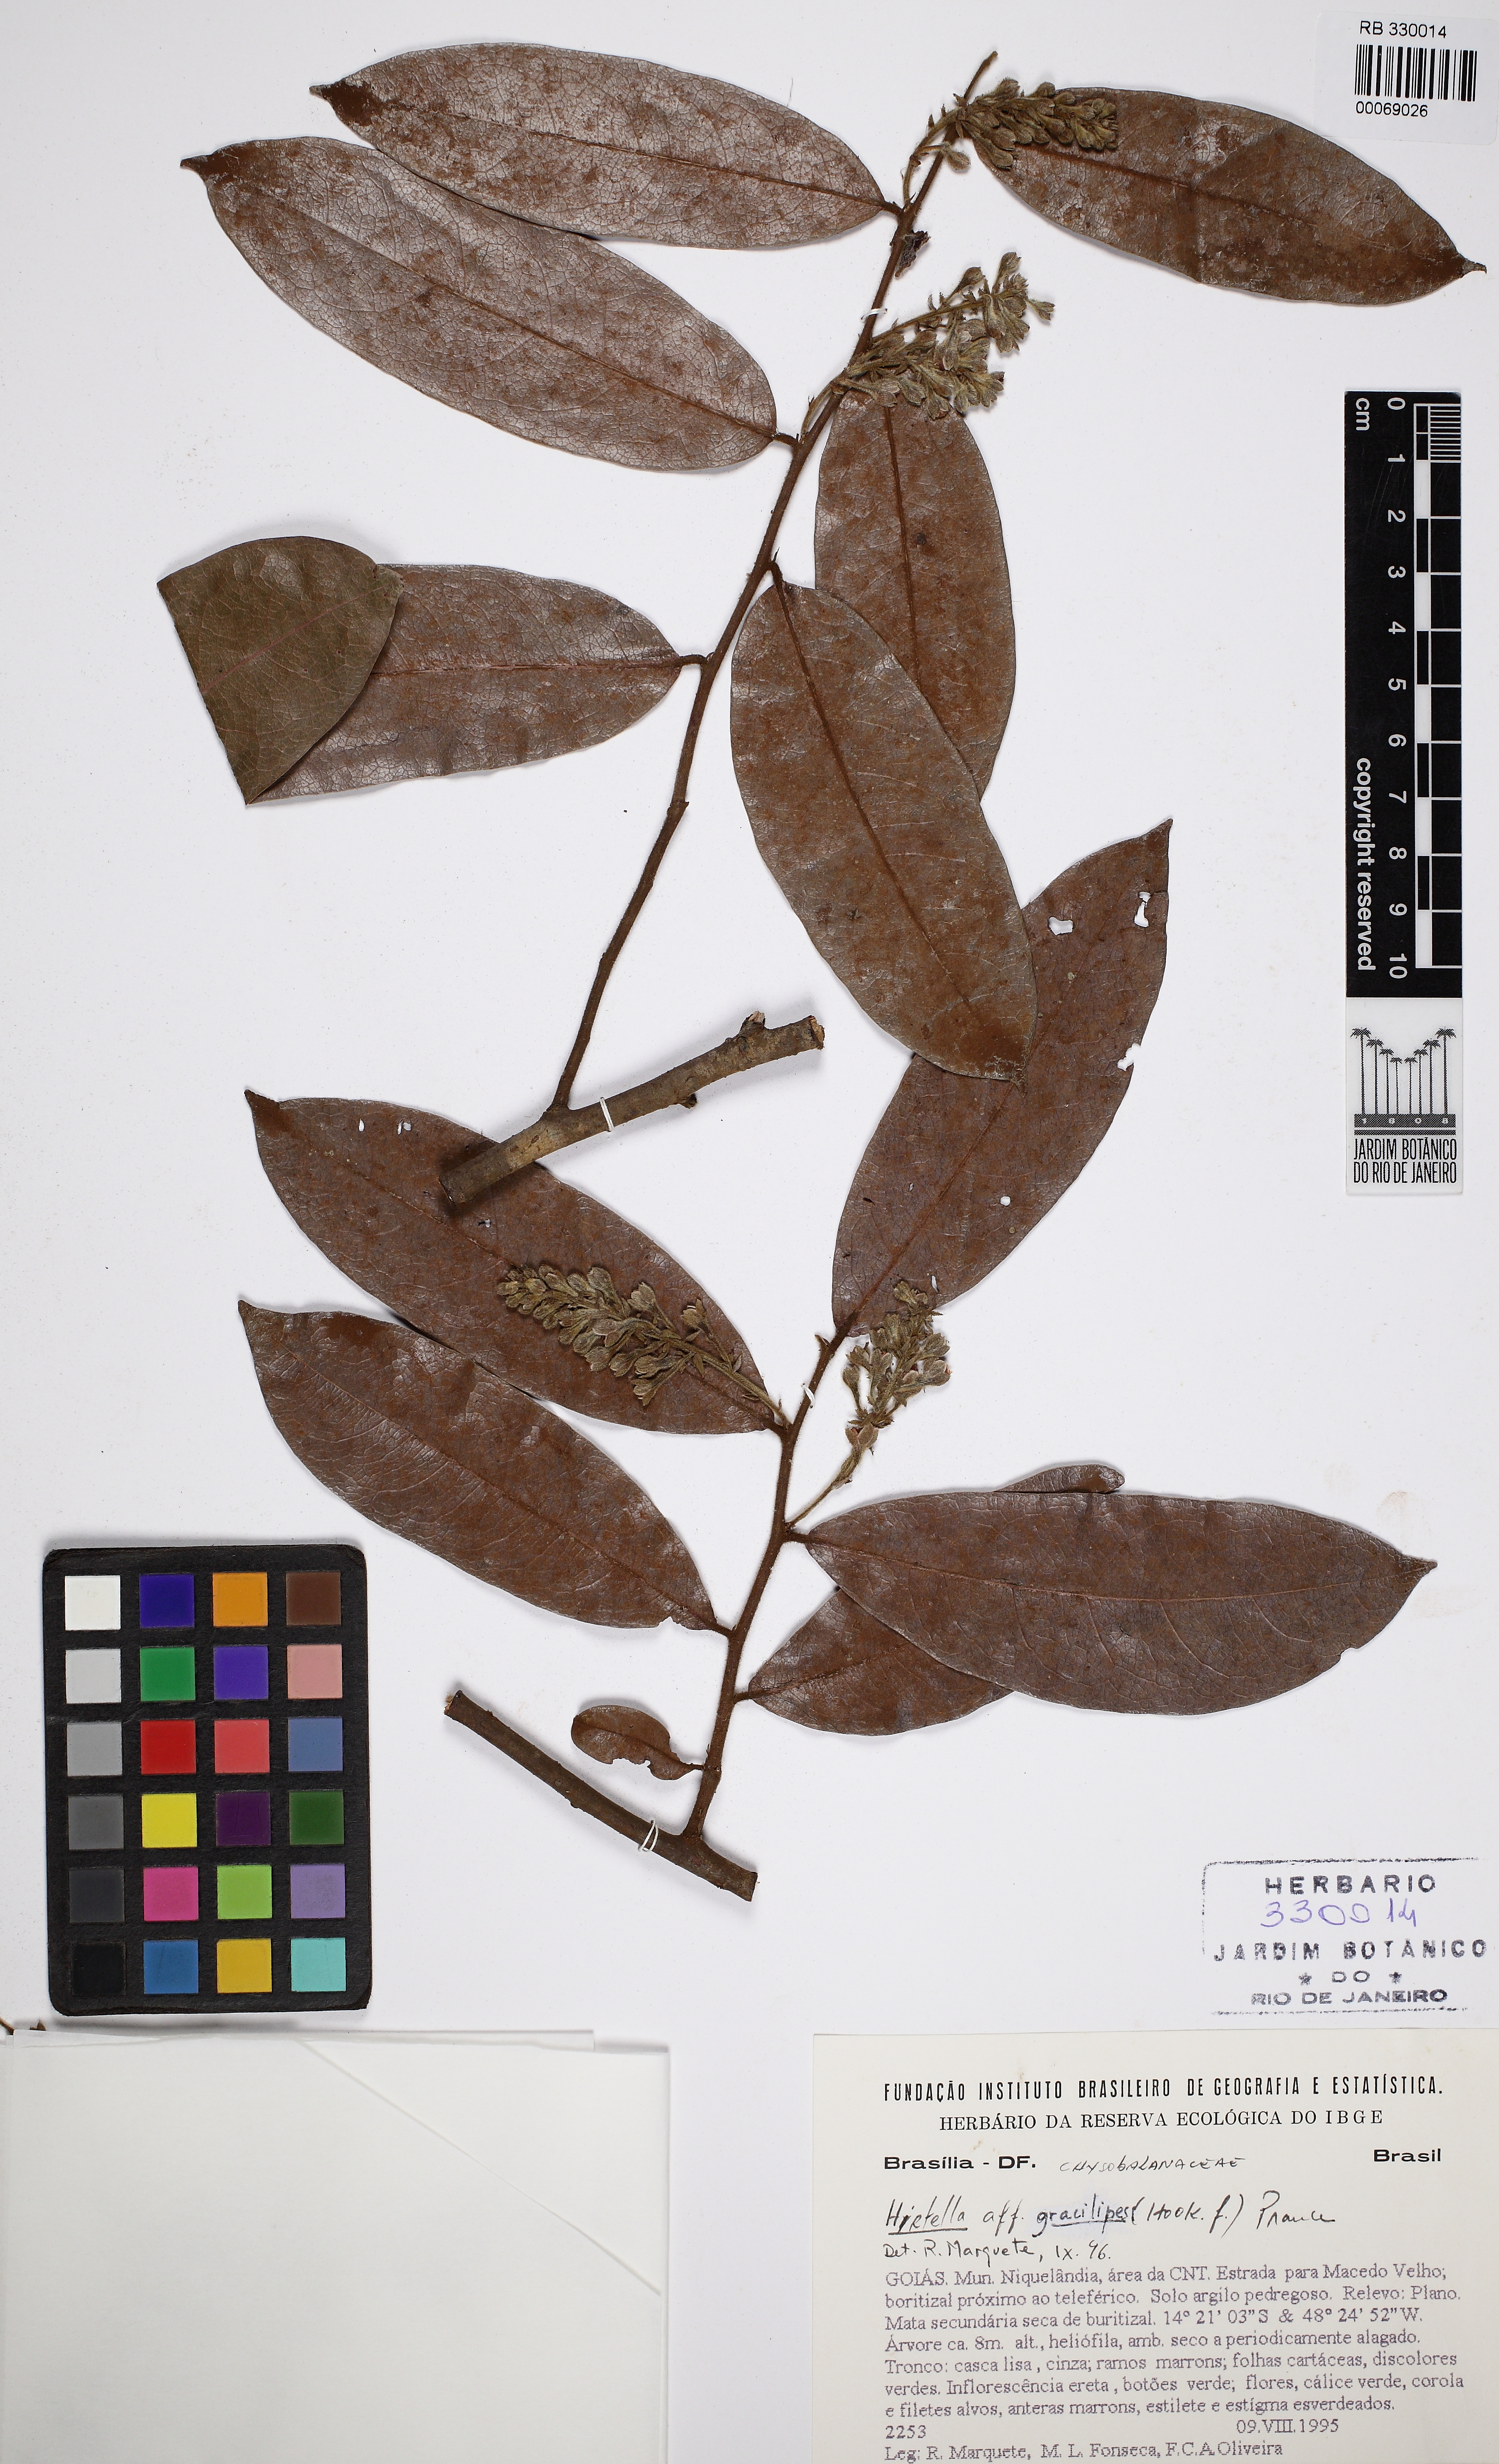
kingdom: Plantae
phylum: Tracheophyta
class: Magnoliopsida
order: Malpighiales
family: Chrysobalanaceae
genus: Hirtella
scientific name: Hirtella martiana
